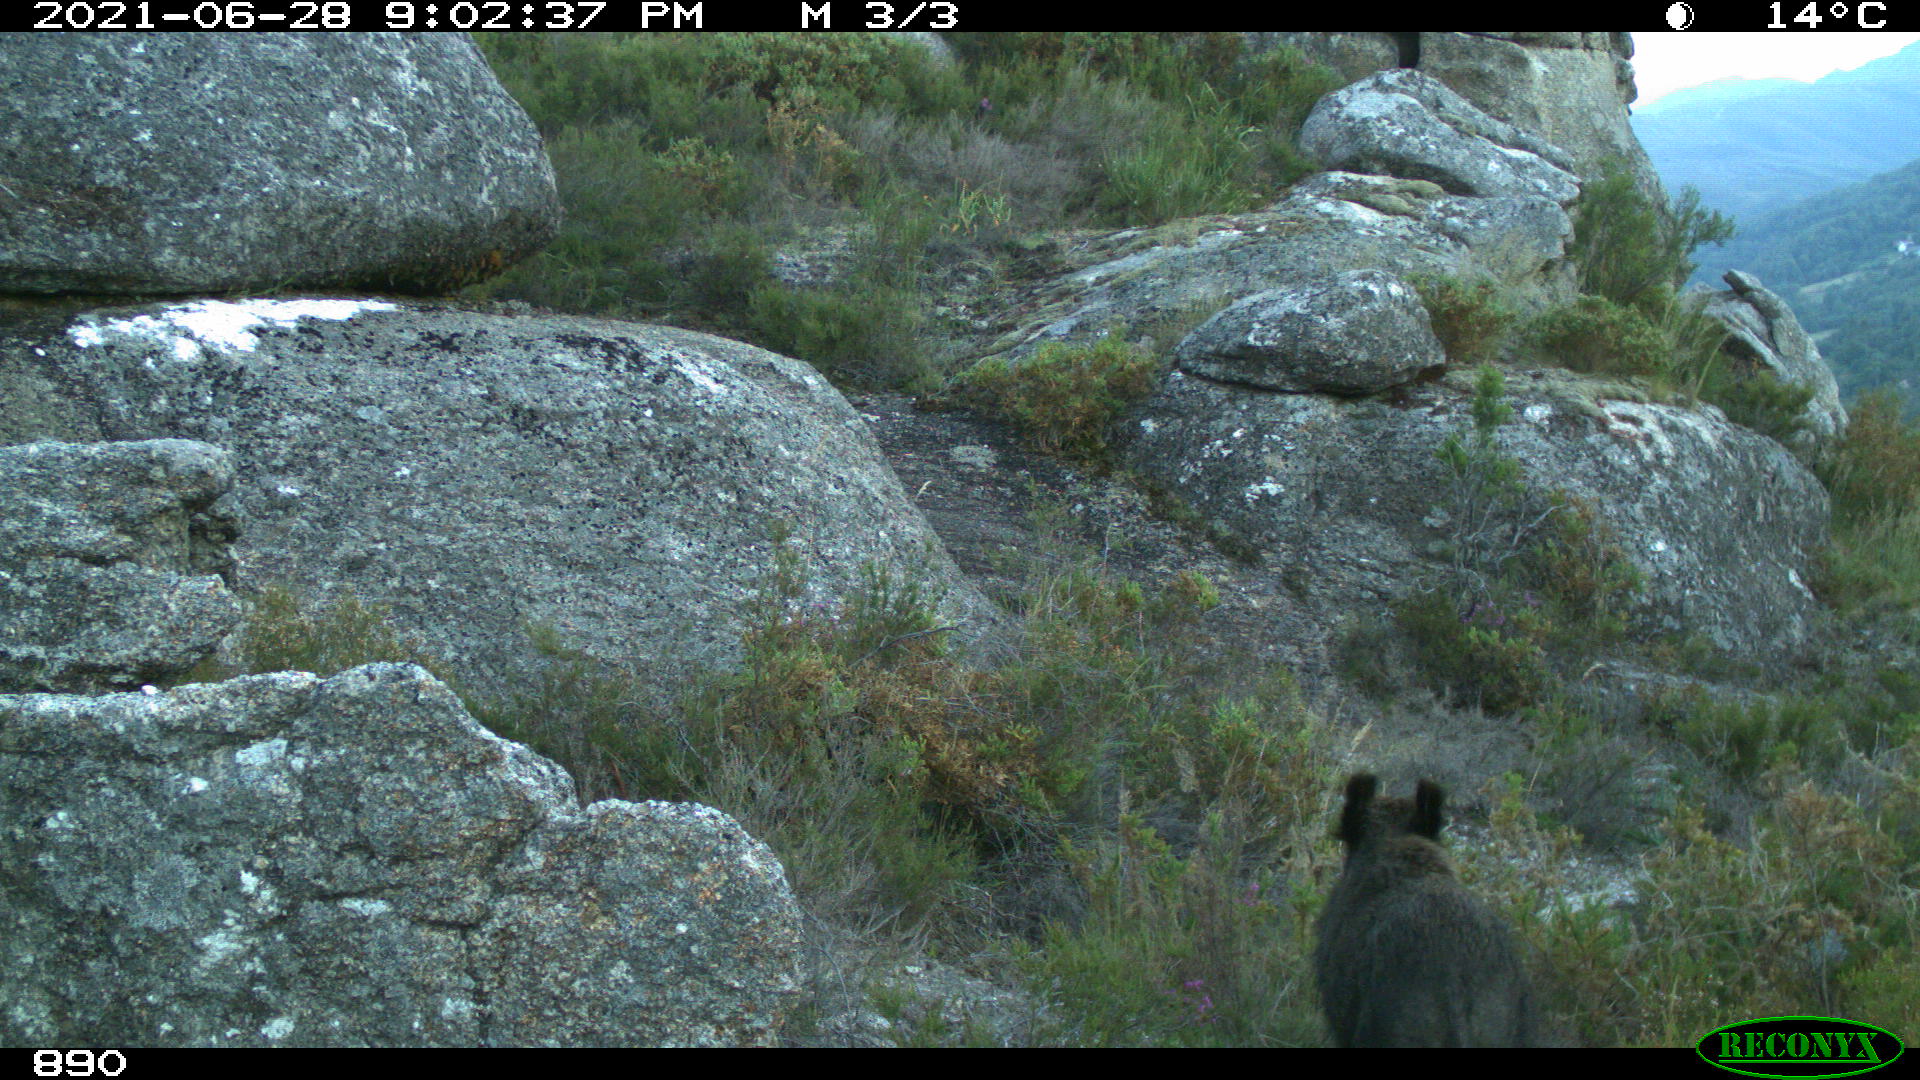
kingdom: Animalia
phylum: Chordata
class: Mammalia
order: Artiodactyla
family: Suidae
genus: Sus
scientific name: Sus scrofa
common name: Wild boar
